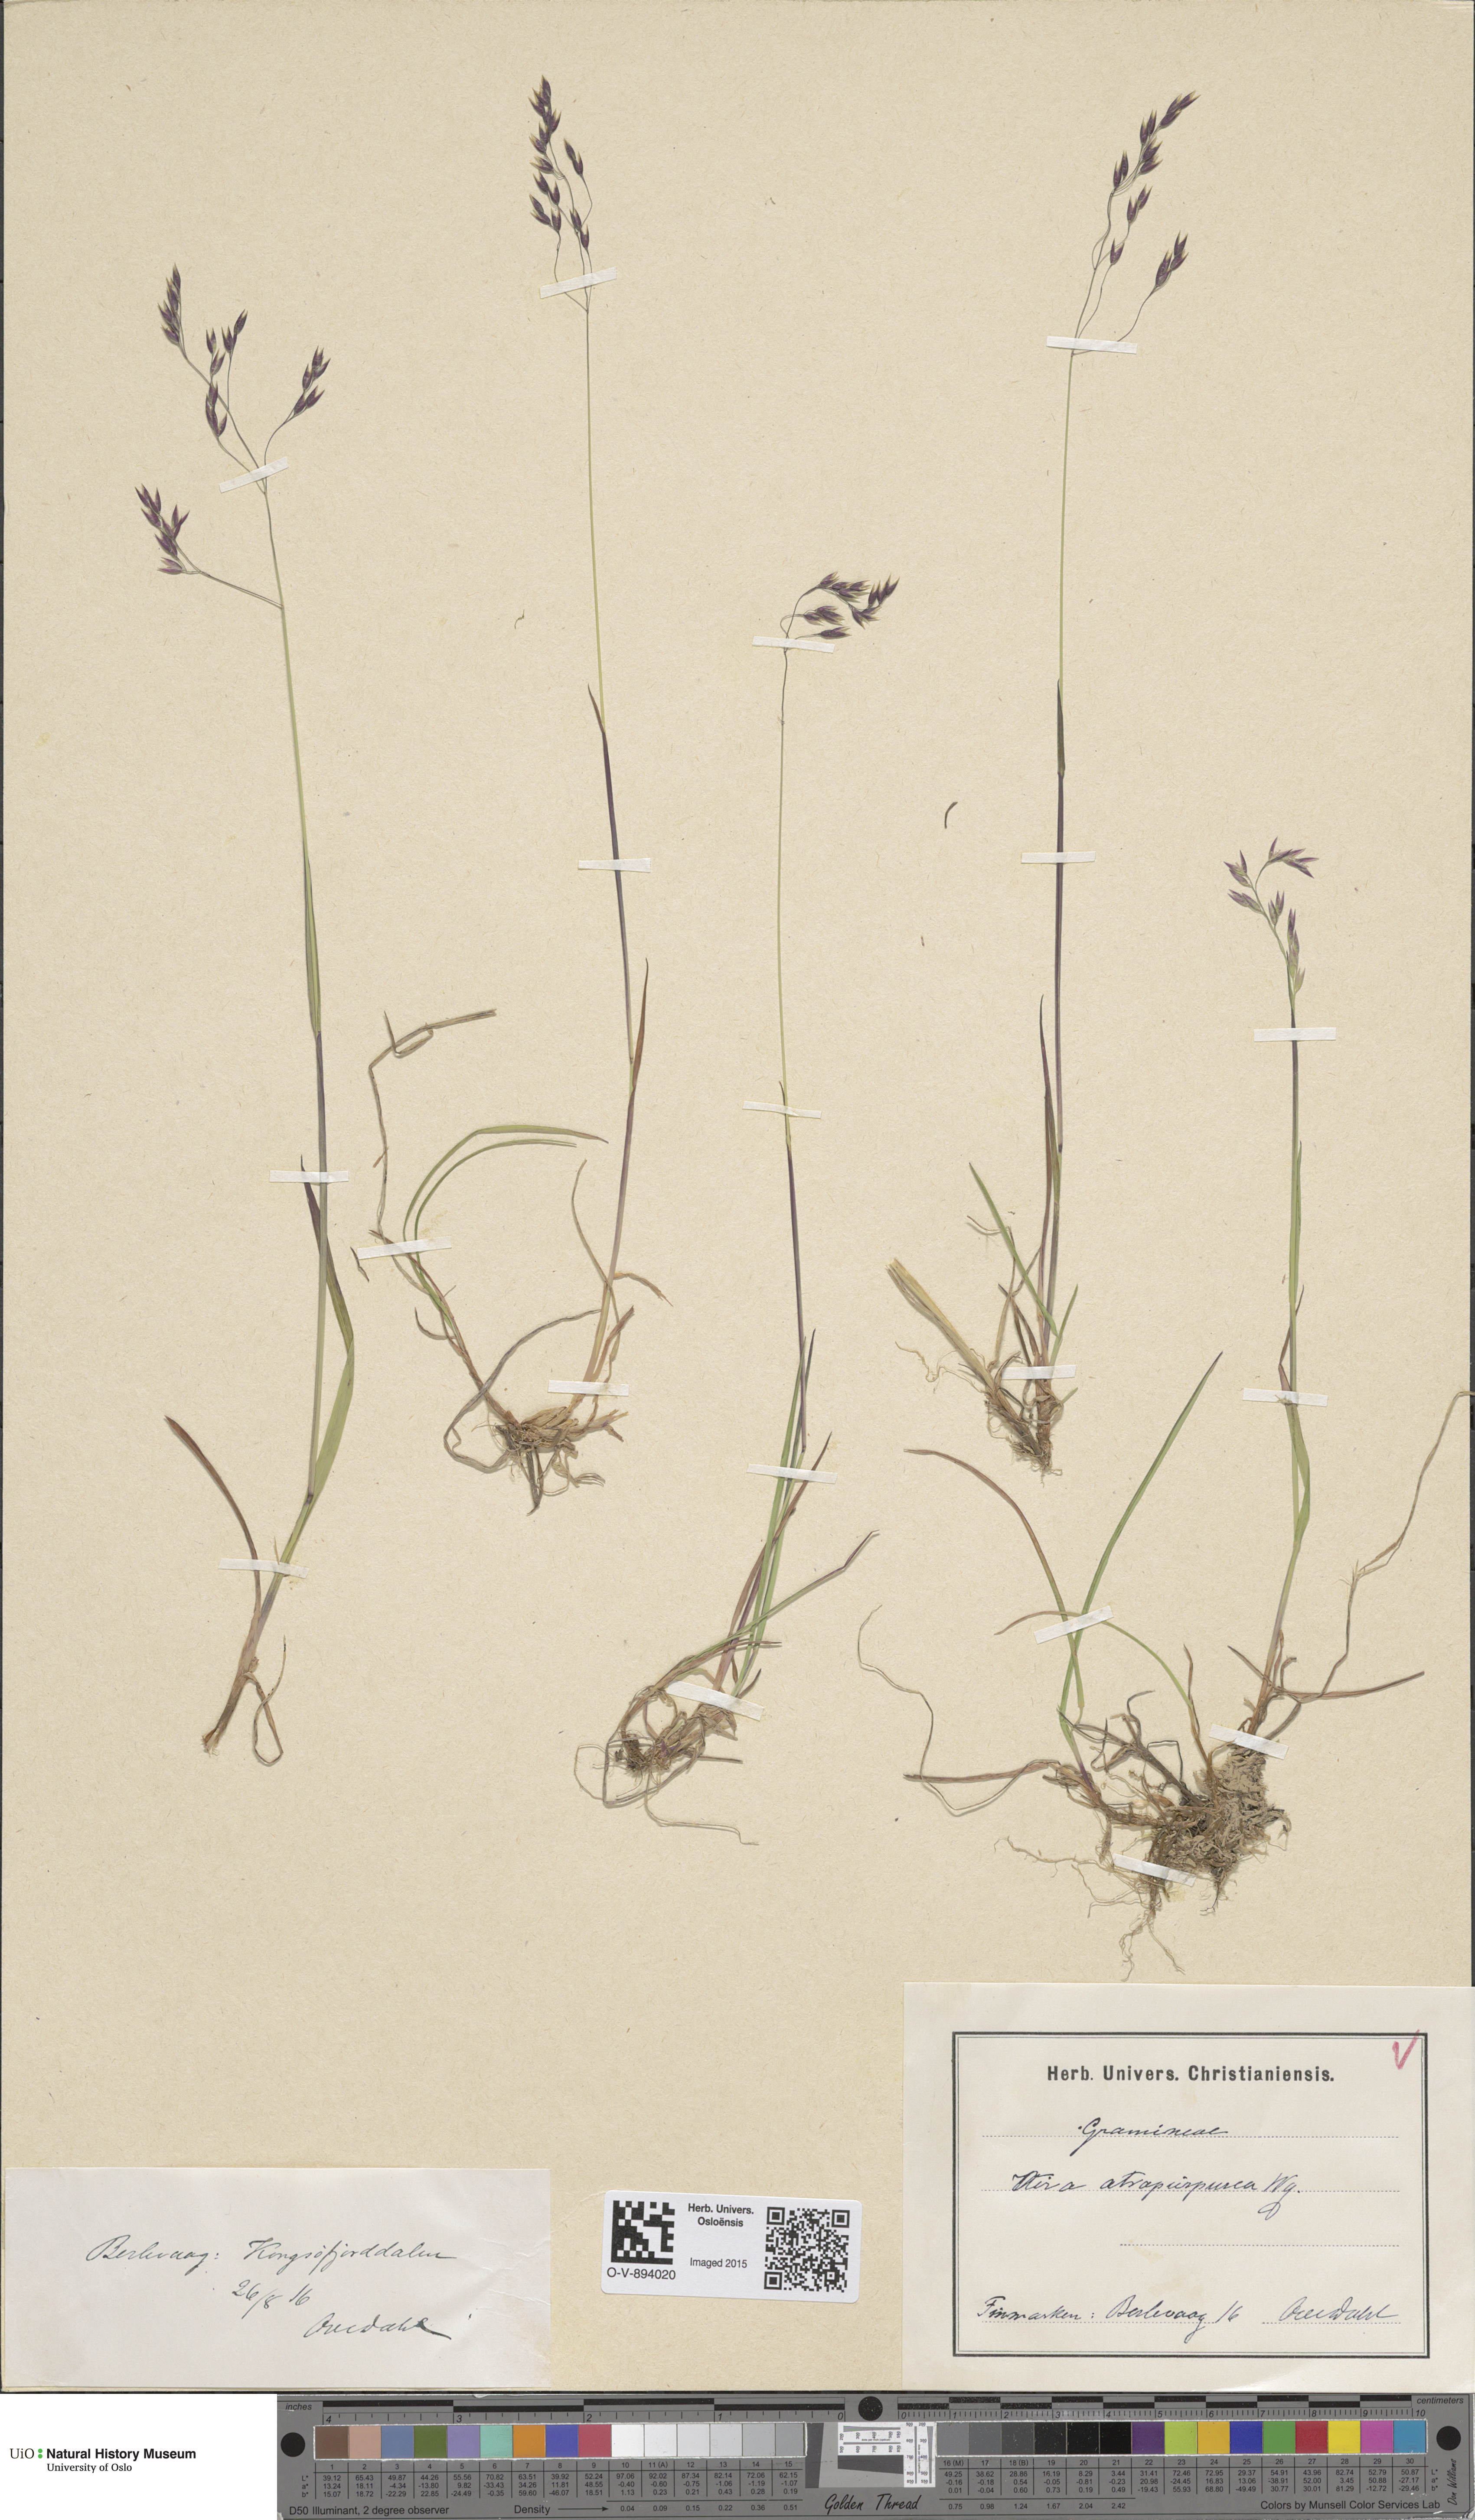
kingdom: Plantae
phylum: Tracheophyta
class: Liliopsida
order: Poales
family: Poaceae
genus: Vahlodea
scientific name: Vahlodea atropurpurea
